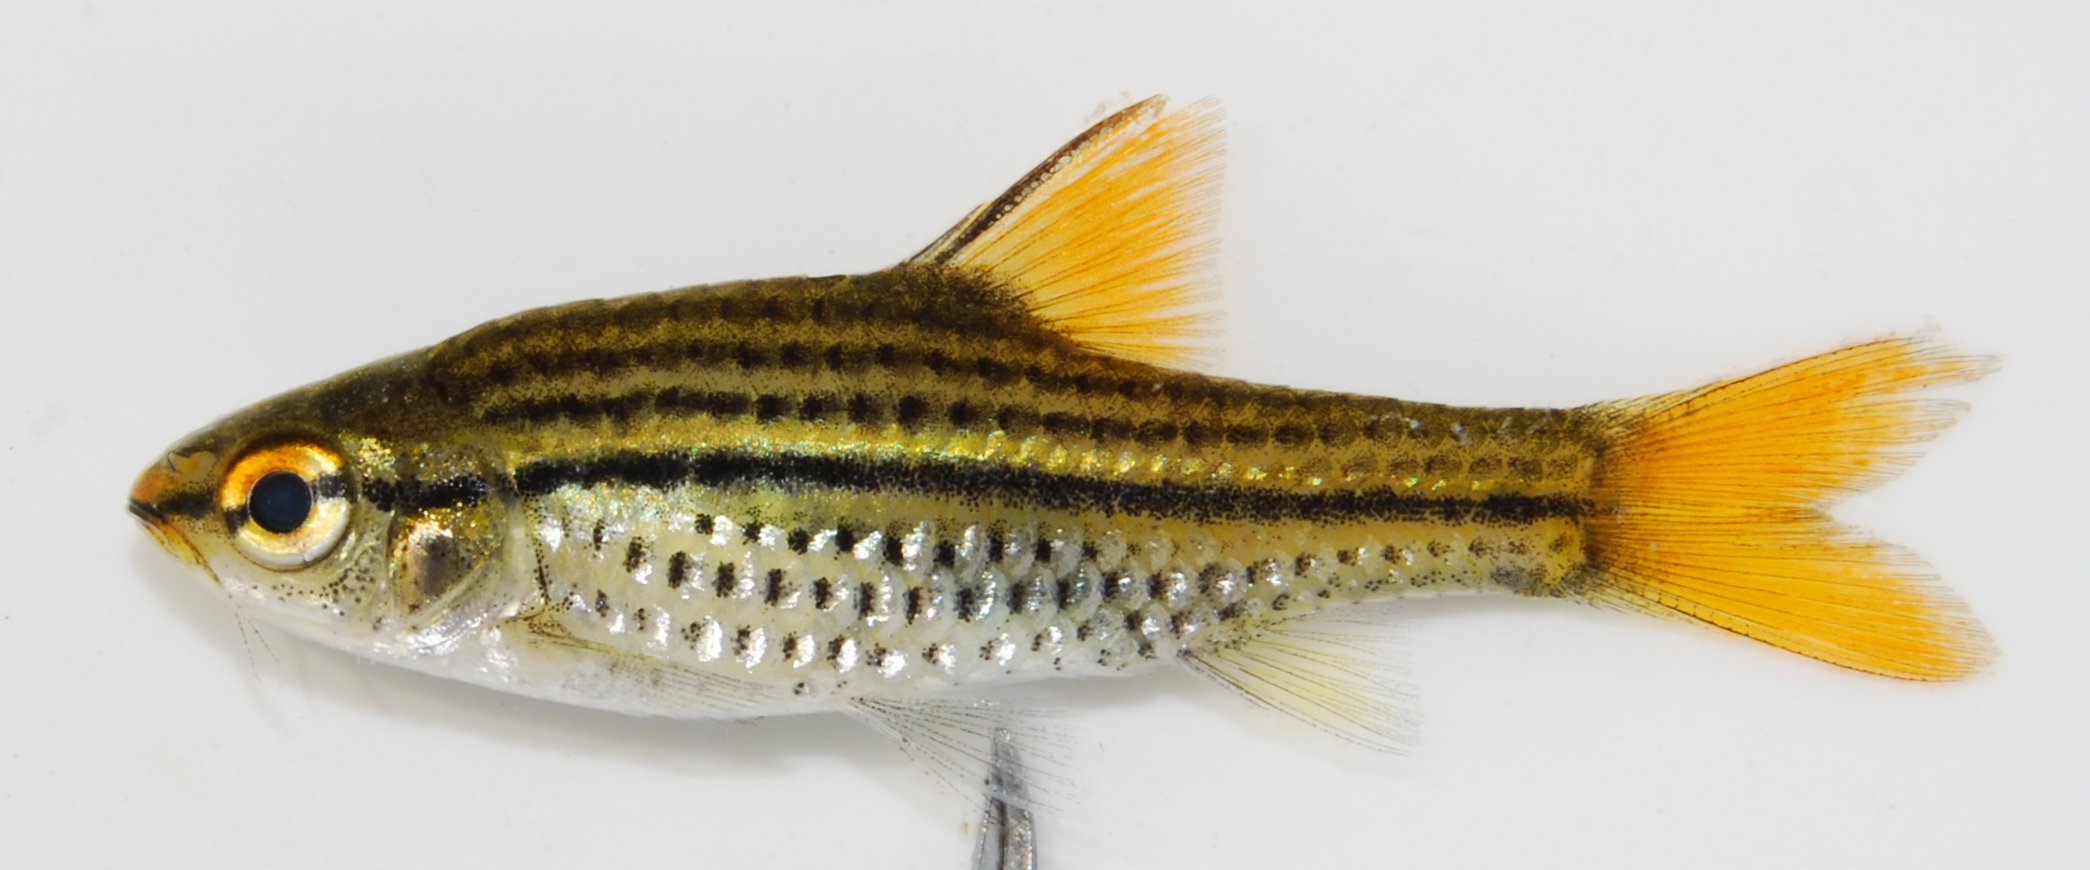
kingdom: Animalia
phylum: Chordata
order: Cypriniformes
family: Cyprinidae
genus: Enteromius
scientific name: Enteromius multilineatus
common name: Copperstripe barb
